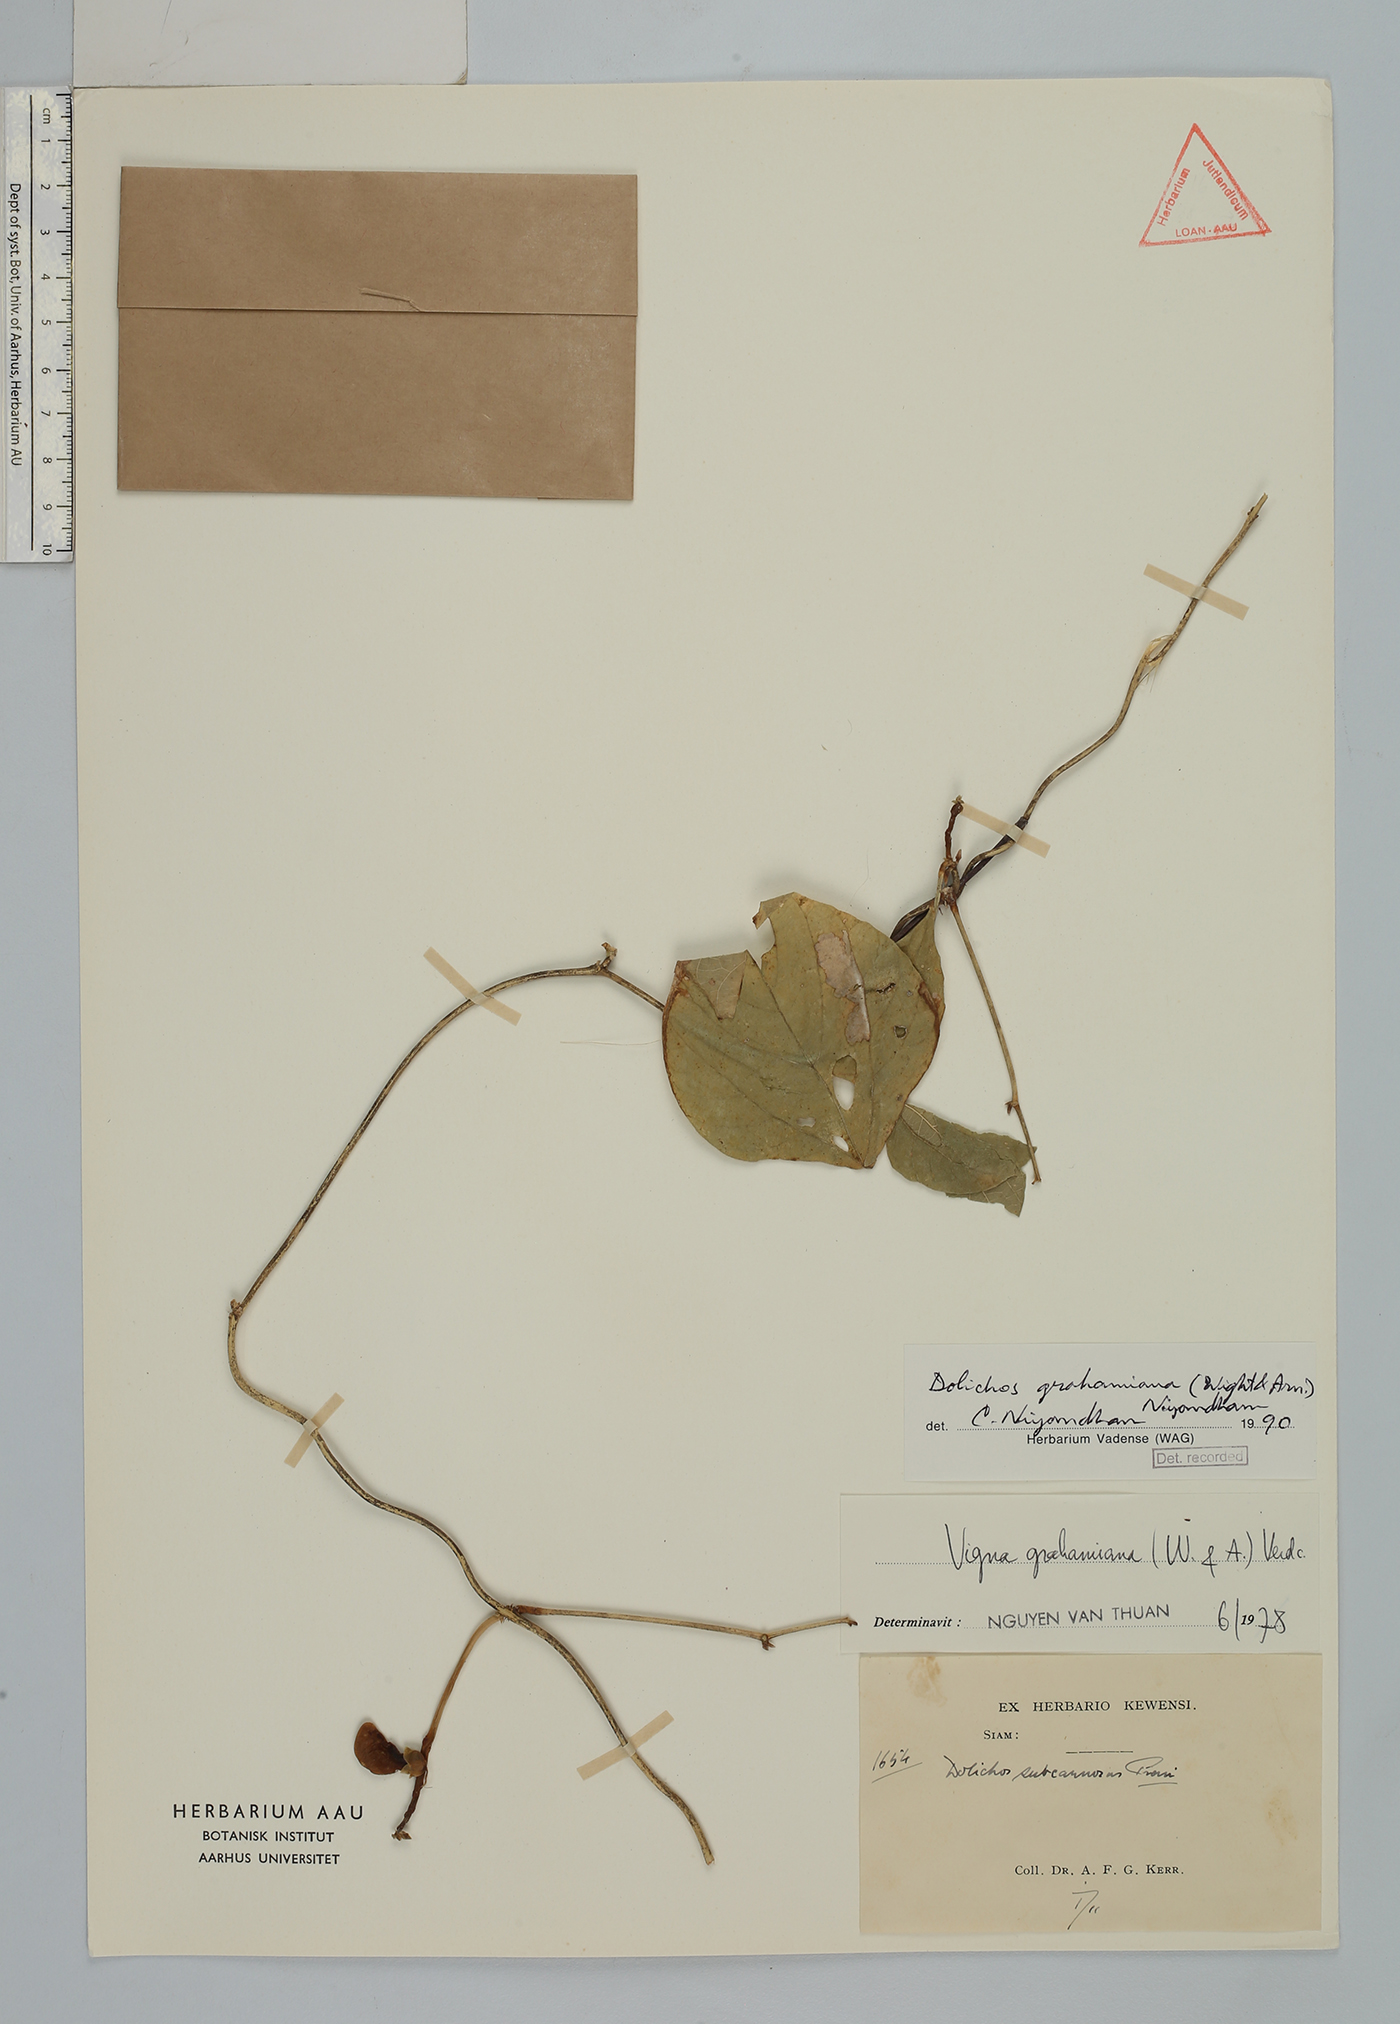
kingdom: Plantae
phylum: Tracheophyta
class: Magnoliopsida
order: Fabales
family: Fabaceae
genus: Wajira
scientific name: Wajira grahamiana
